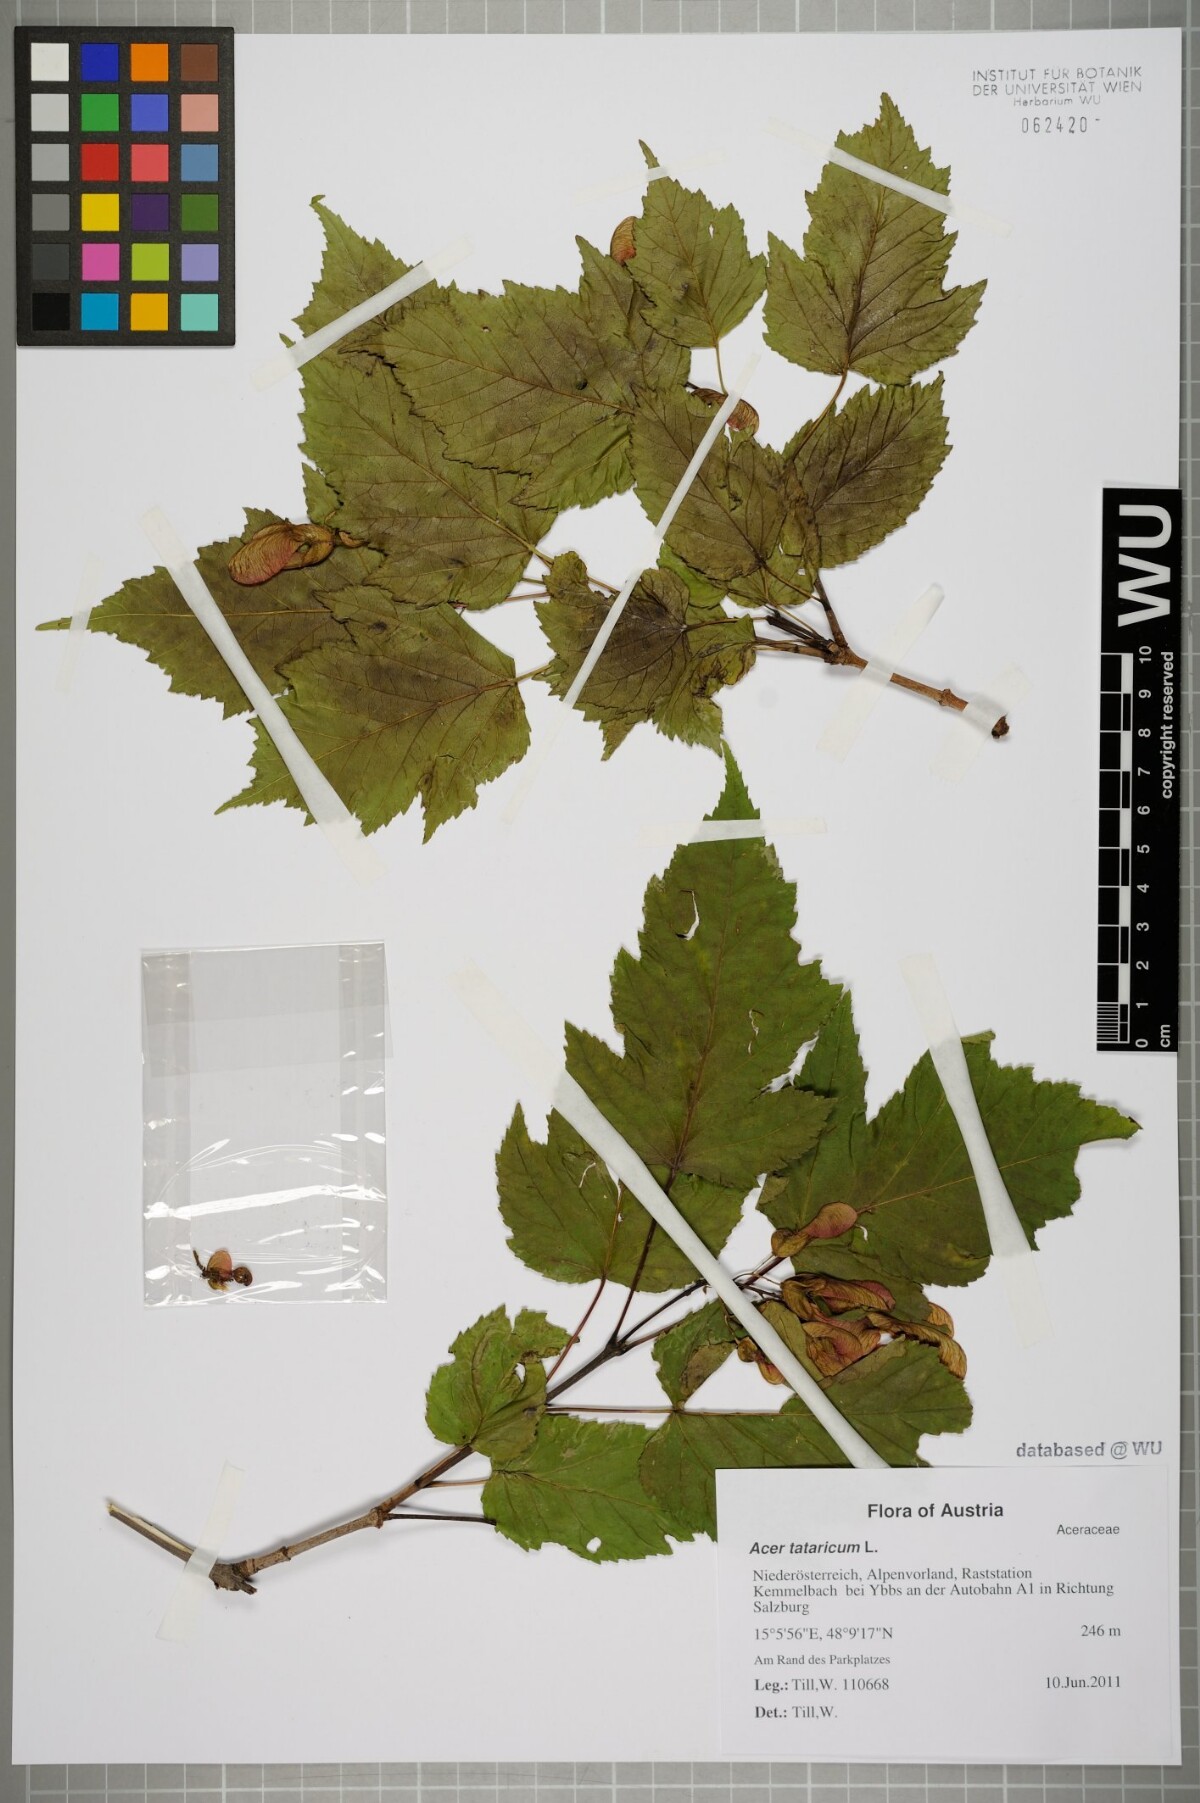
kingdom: Plantae
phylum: Tracheophyta
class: Magnoliopsida
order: Sapindales
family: Sapindaceae
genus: Acer
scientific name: Acer tataricum
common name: Tartar maple
